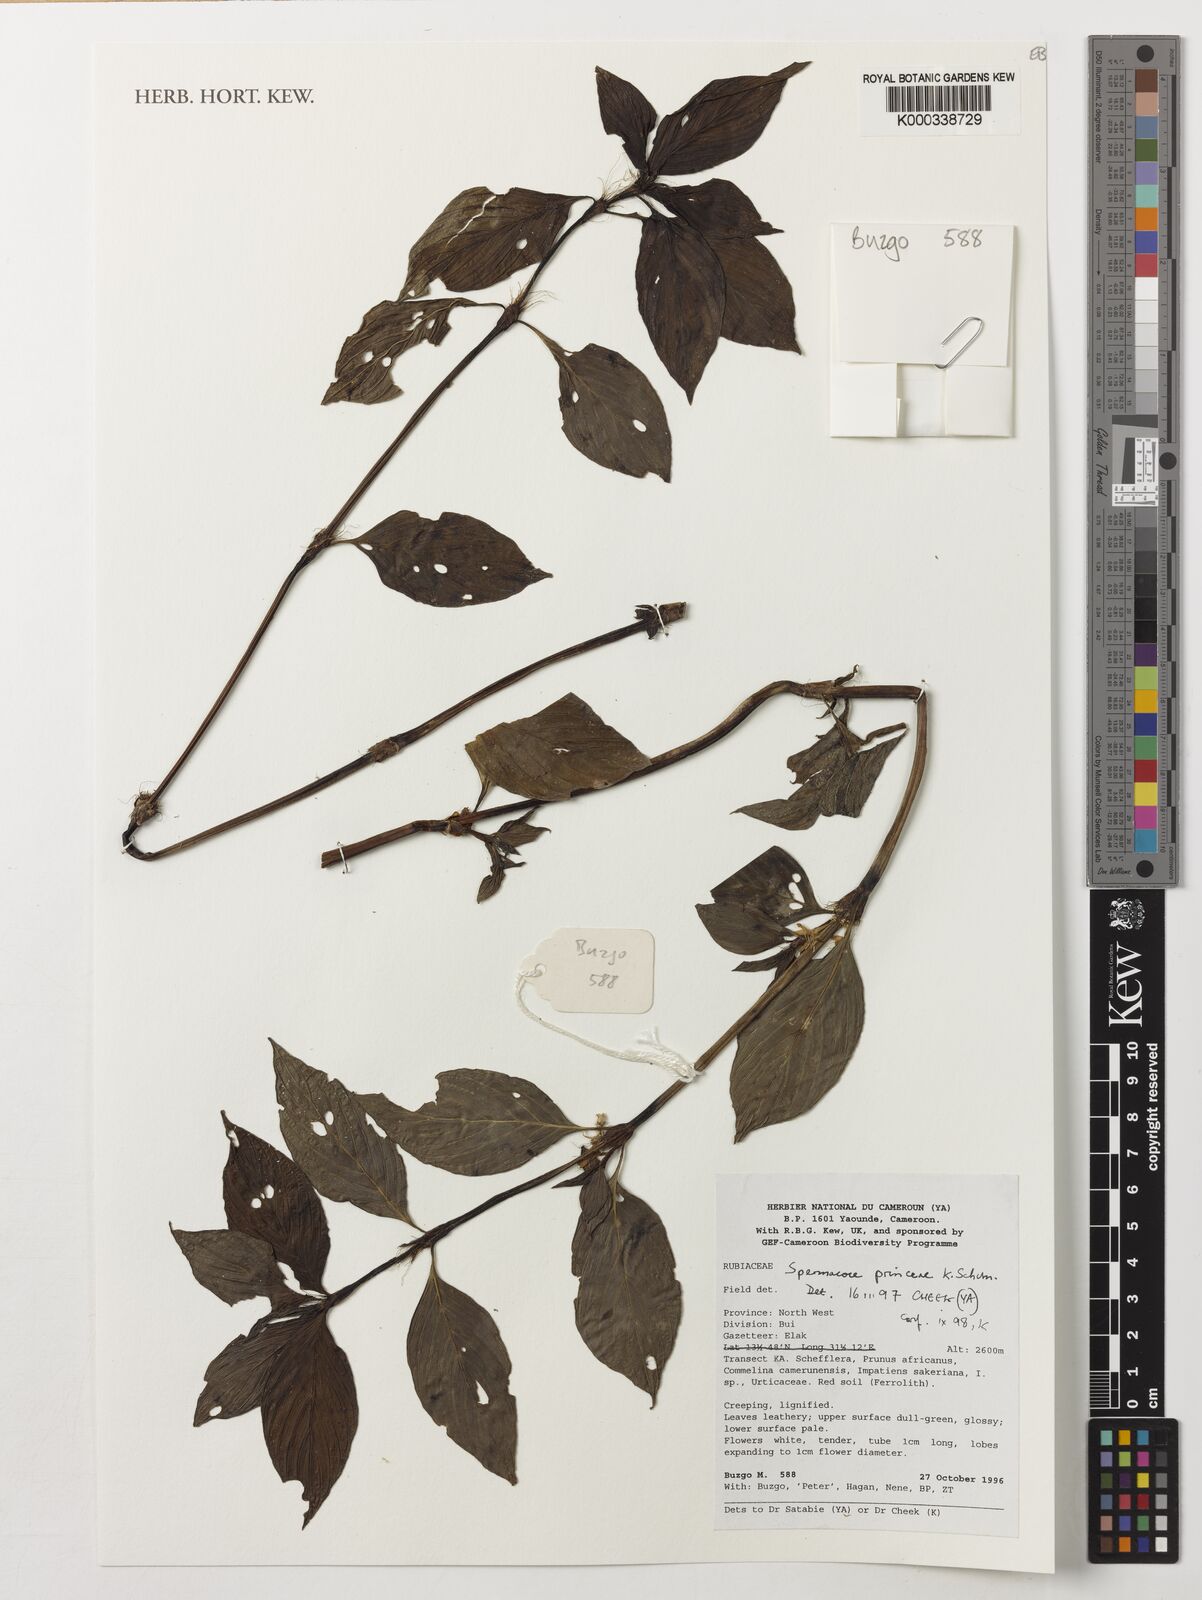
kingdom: Plantae
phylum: Tracheophyta
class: Magnoliopsida
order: Gentianales
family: Rubiaceae
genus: Spermacoce
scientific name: Spermacoce princeae
